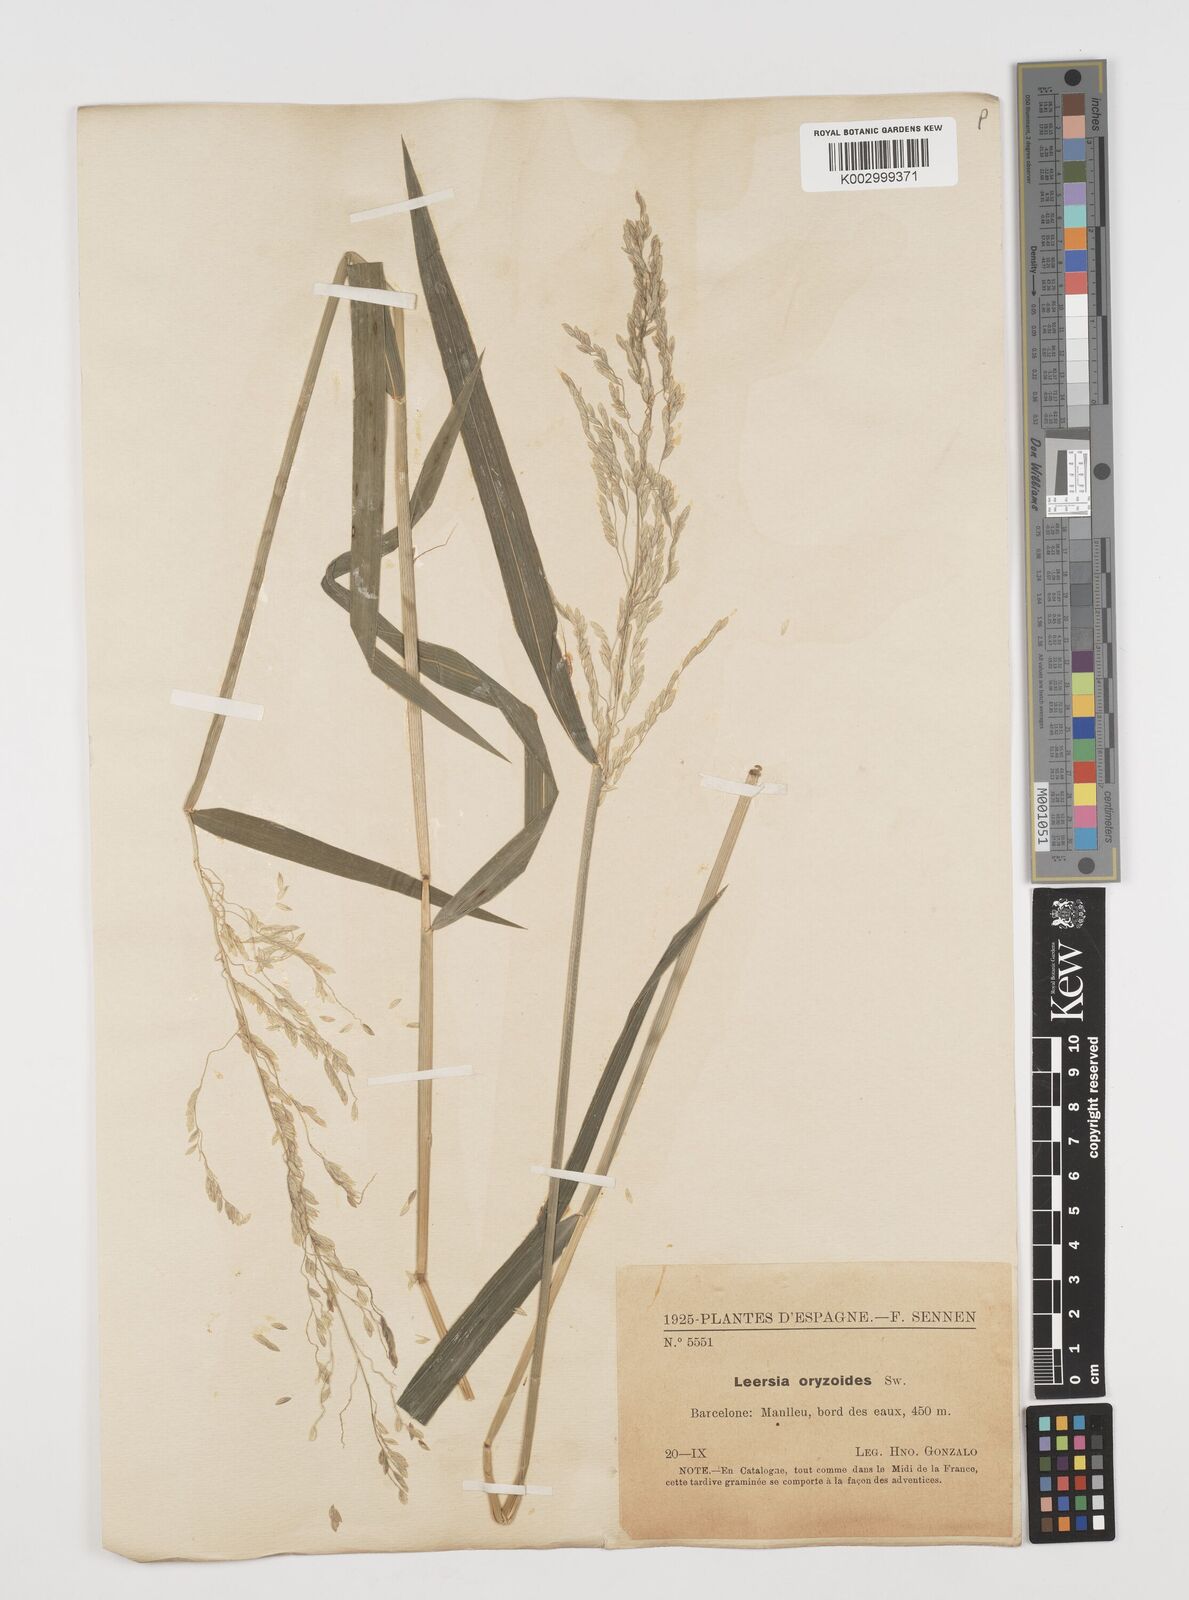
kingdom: Plantae
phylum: Tracheophyta
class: Liliopsida
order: Poales
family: Poaceae
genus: Leersia
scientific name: Leersia oryzoides
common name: Cut-grass
